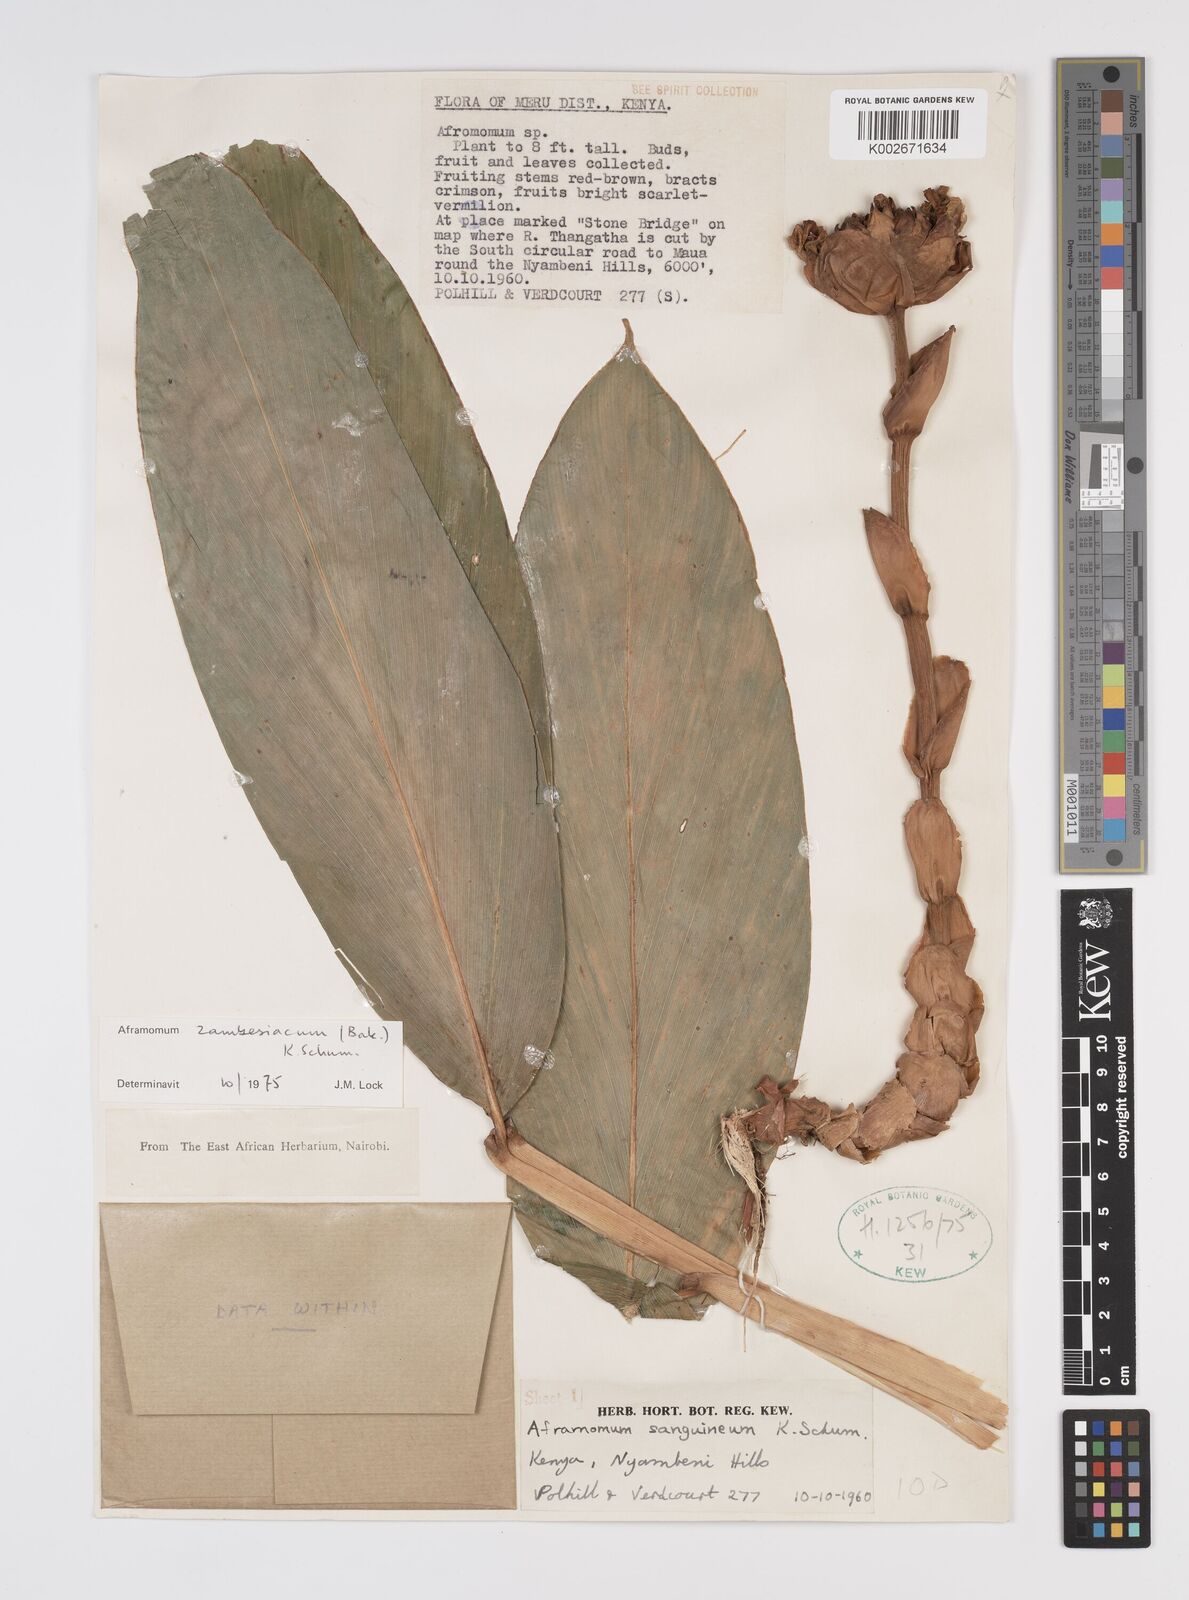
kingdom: Plantae
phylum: Tracheophyta
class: Liliopsida
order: Zingiberales
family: Zingiberaceae
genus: Aframomum
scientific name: Aframomum zambesiacum
